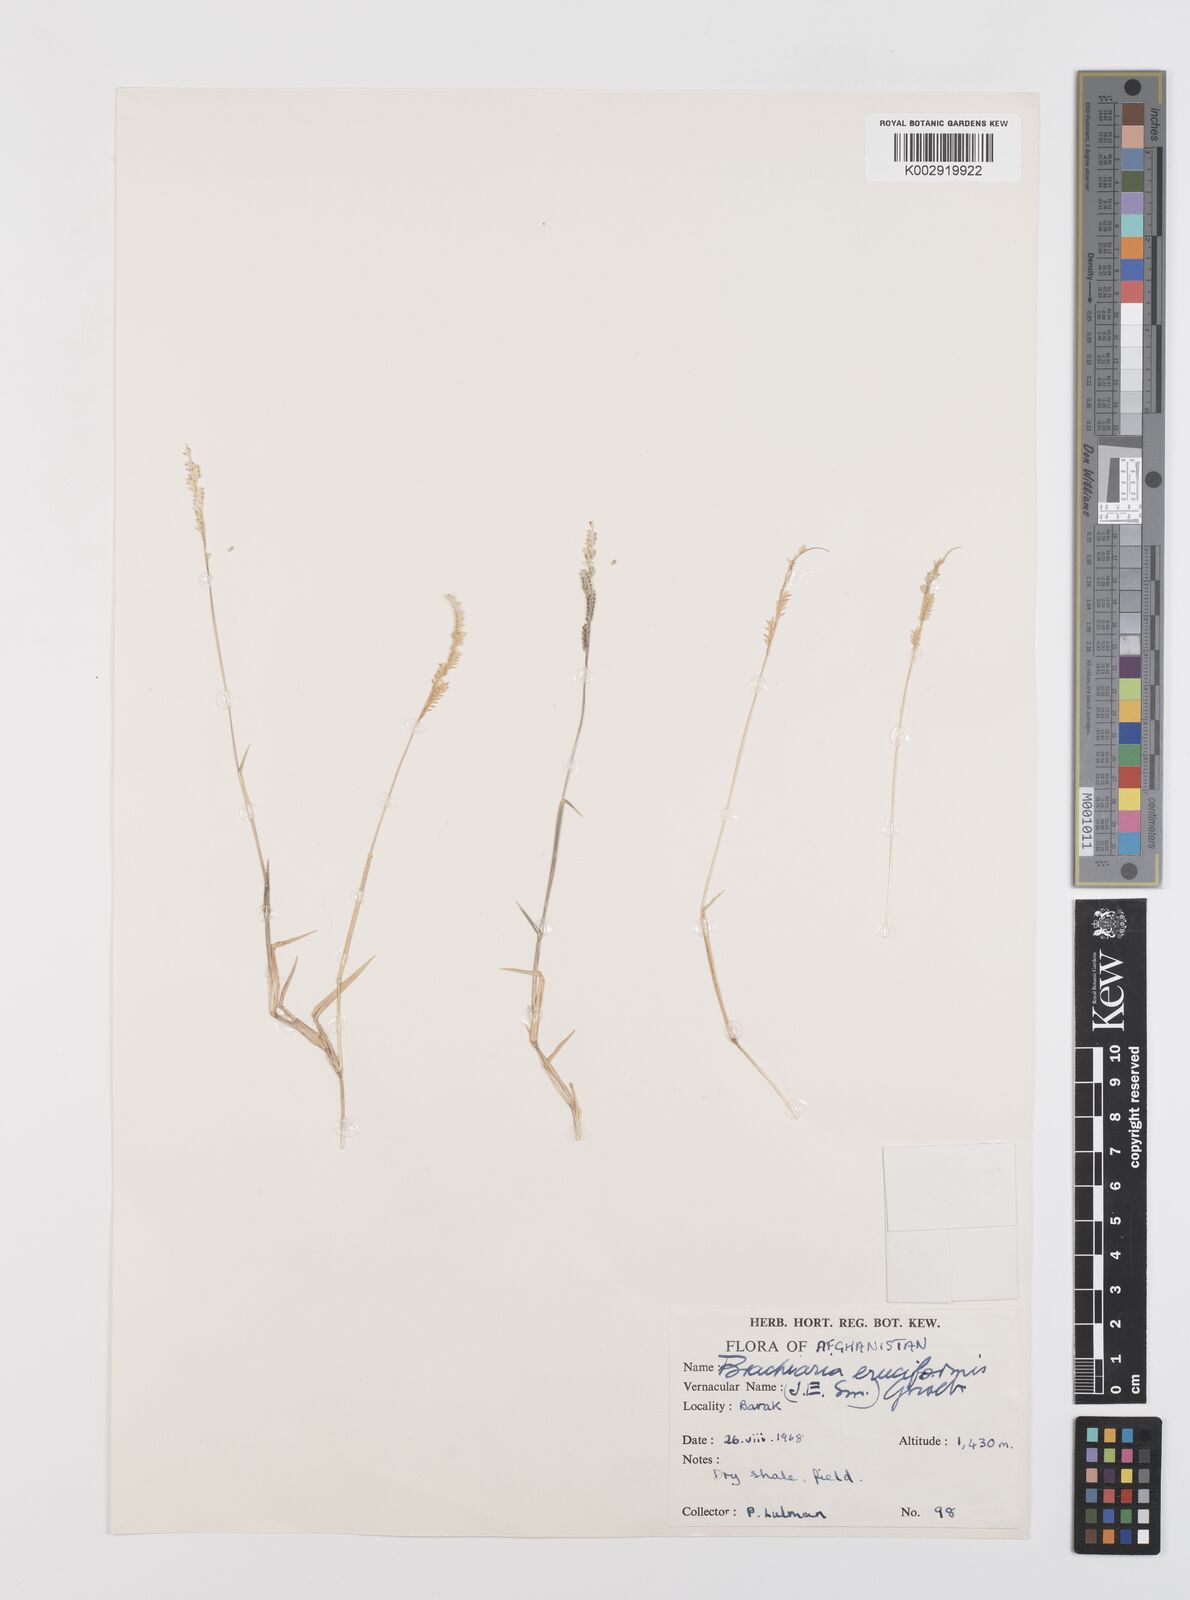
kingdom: Plantae
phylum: Tracheophyta
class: Liliopsida
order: Poales
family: Poaceae
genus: Moorochloa
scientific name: Moorochloa eruciformis
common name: Sweet signalgrass
